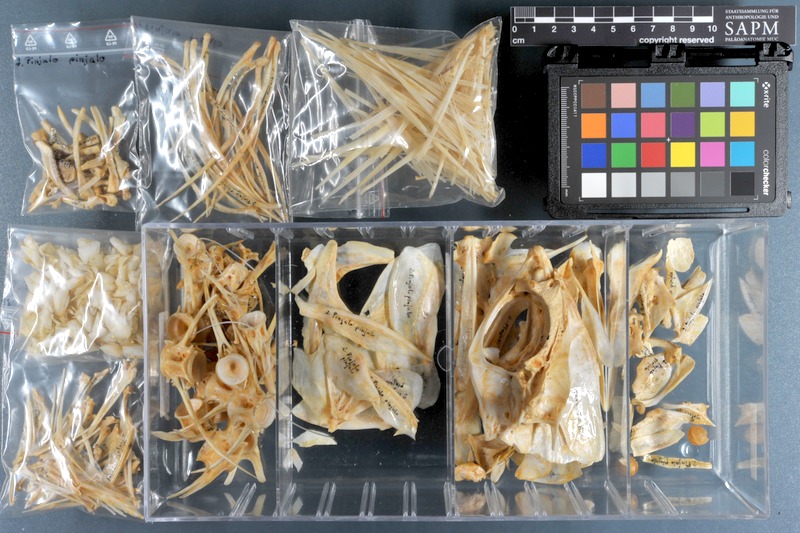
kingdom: Animalia
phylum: Chordata
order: Perciformes
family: Lutjanidae
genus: Pinjalo
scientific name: Pinjalo pinjalo
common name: Pinjalo snapper
